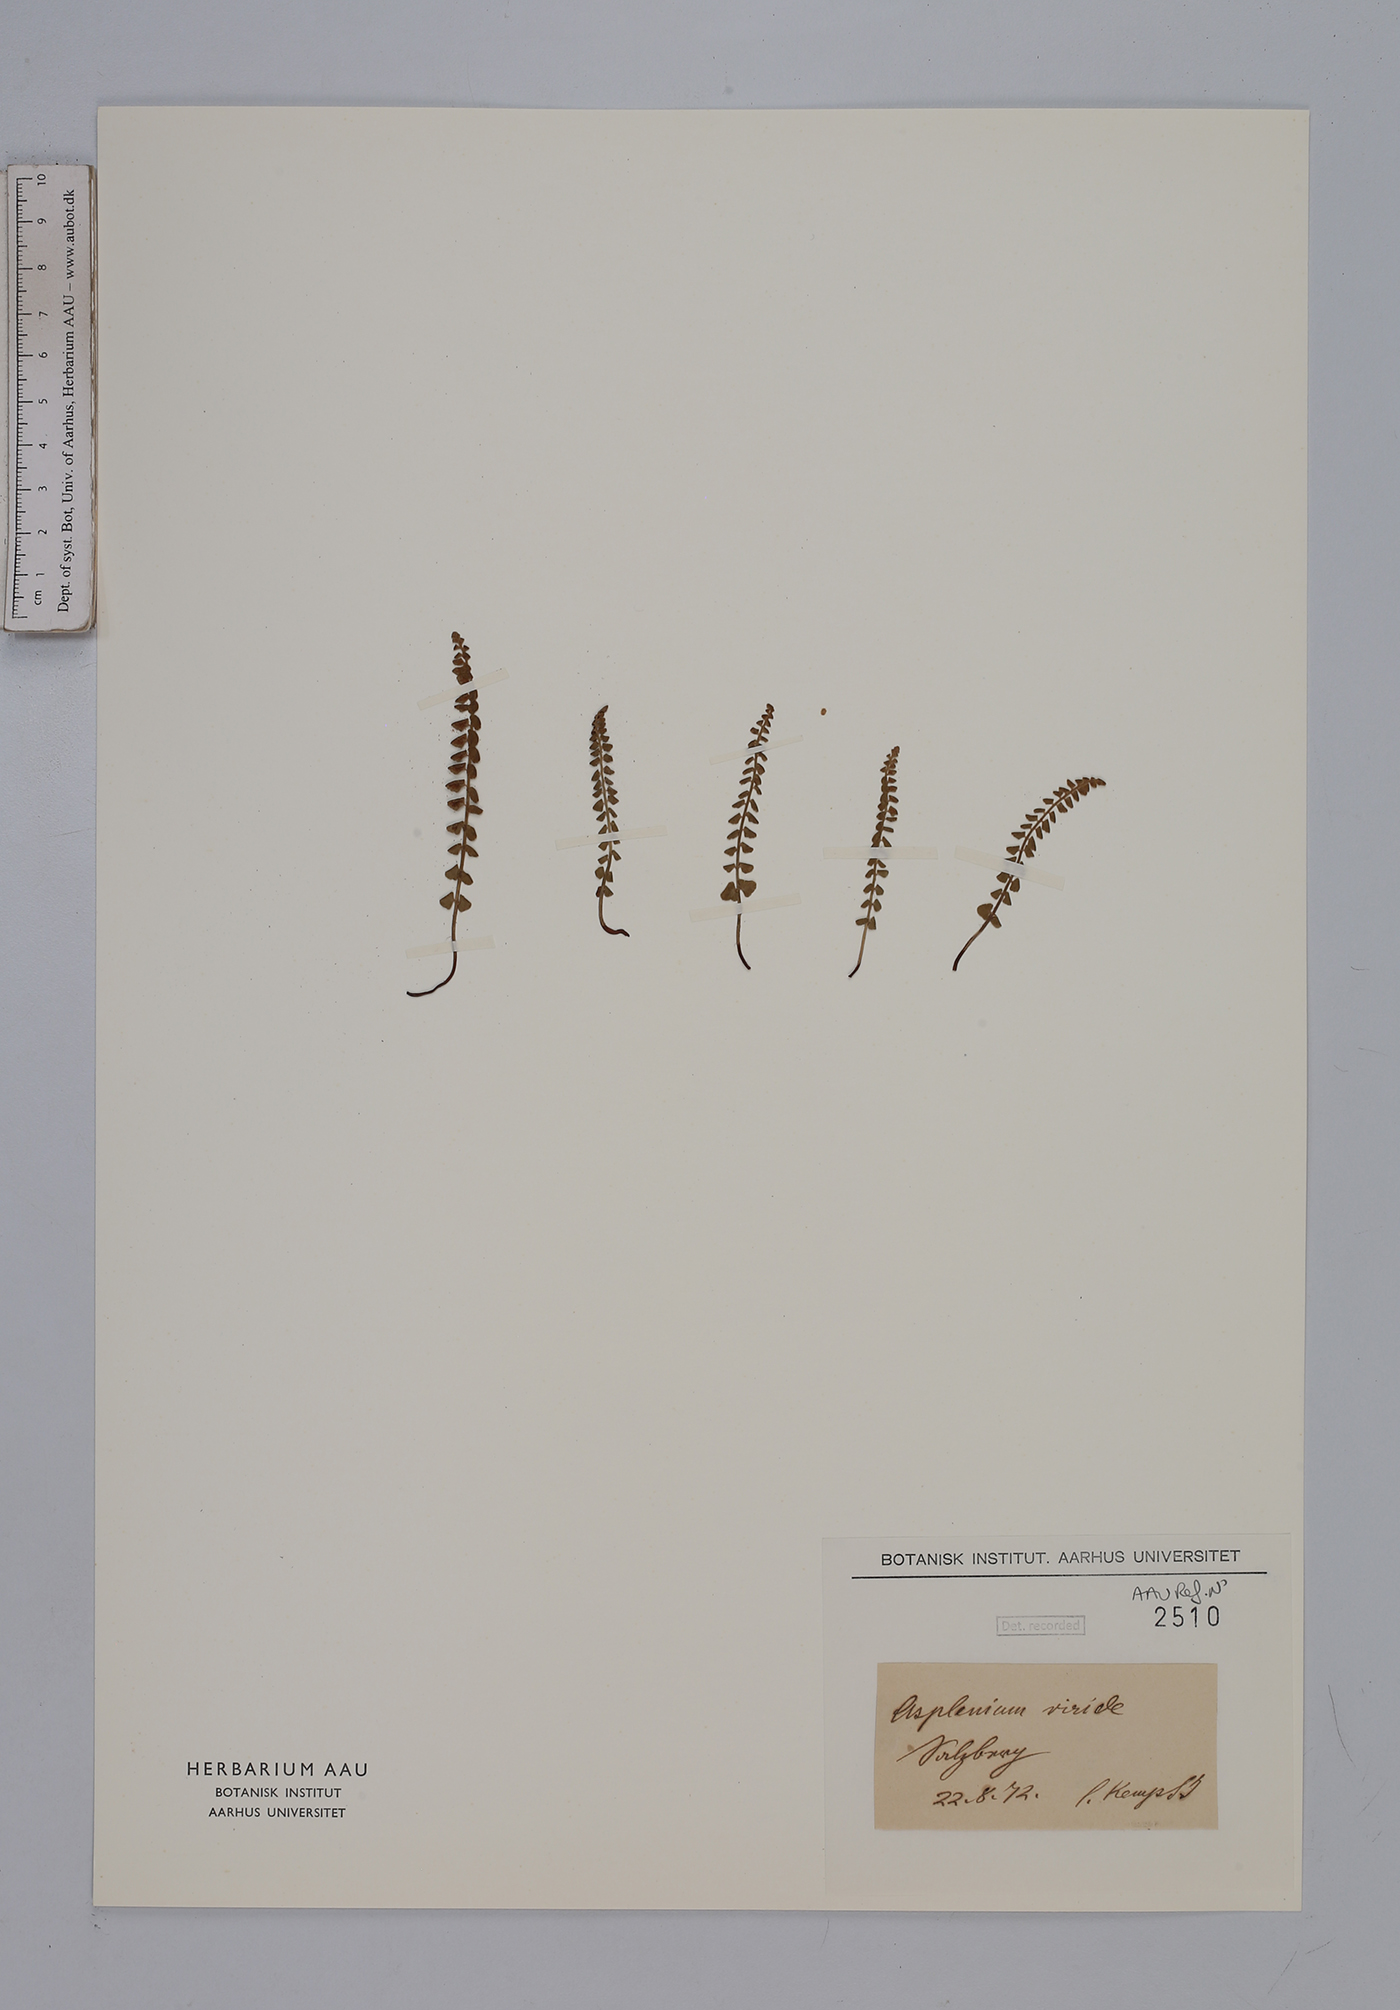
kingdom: Plantae
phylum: Tracheophyta
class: Polypodiopsida
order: Polypodiales
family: Aspleniaceae
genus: Asplenium
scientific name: Asplenium viride
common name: Green spleenwort
